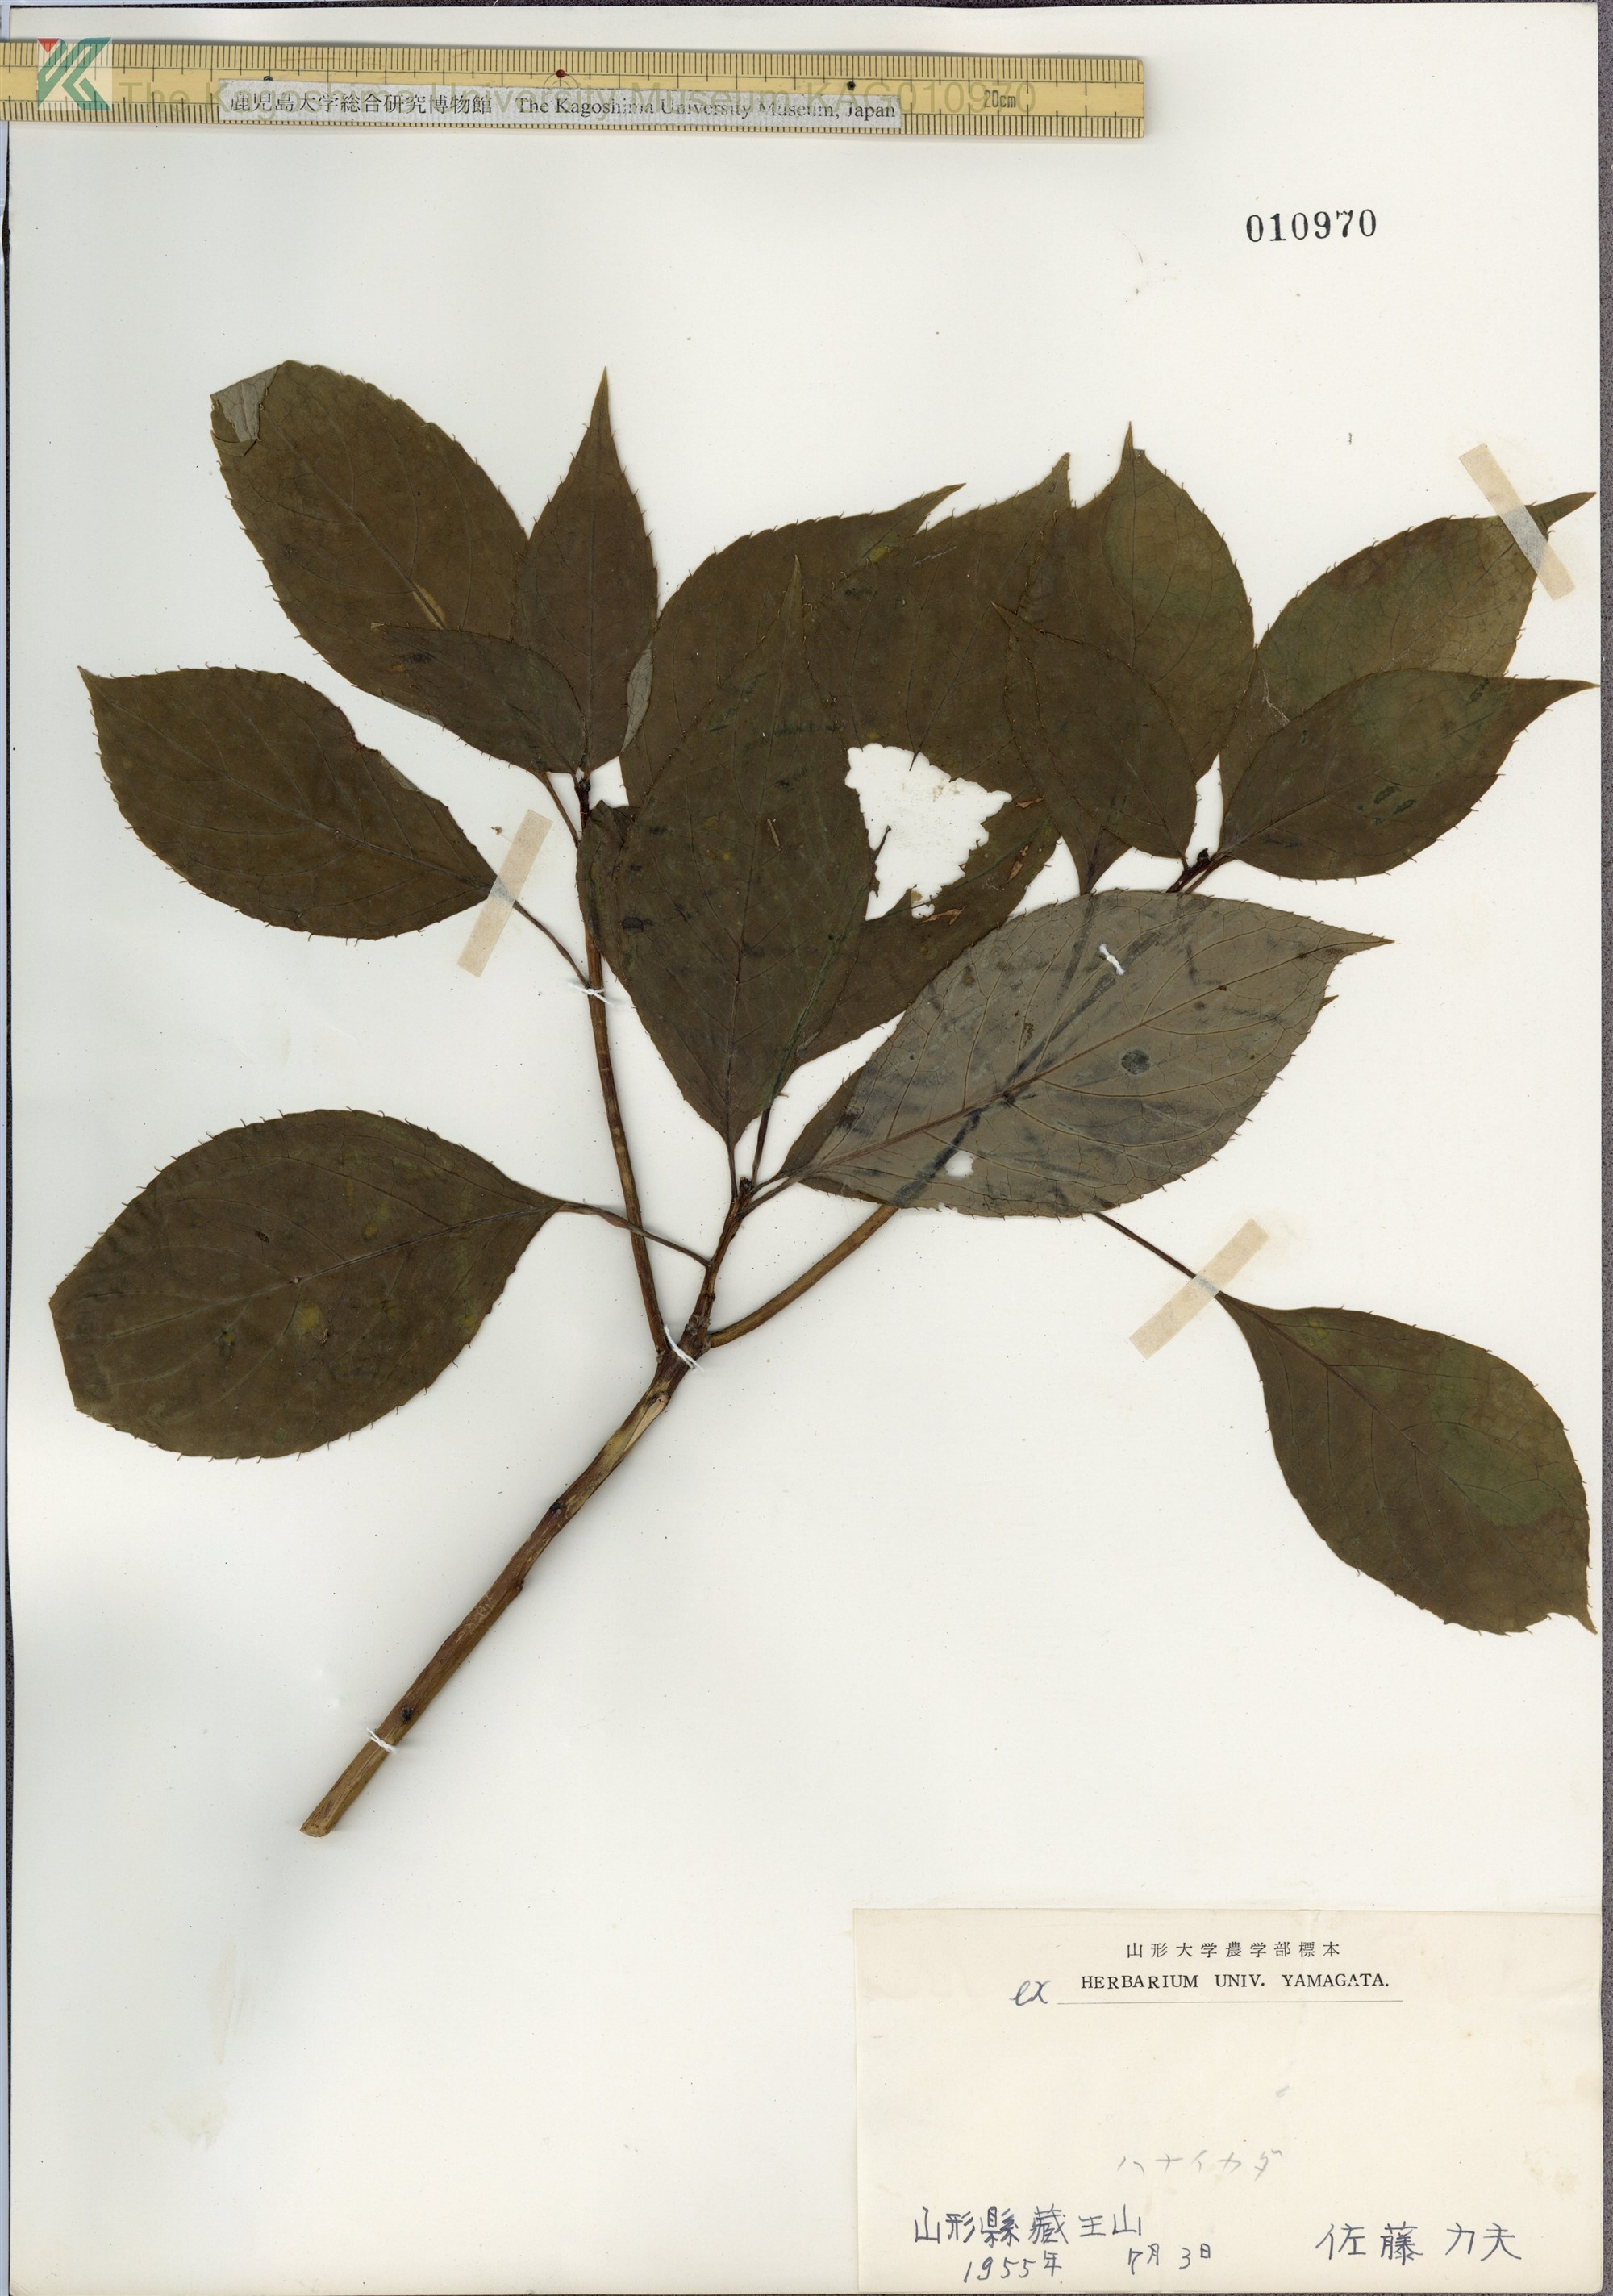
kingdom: Plantae
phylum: Tracheophyta
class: Magnoliopsida
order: Aquifoliales
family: Helwingiaceae
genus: Helwingia
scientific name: Helwingia japonica
